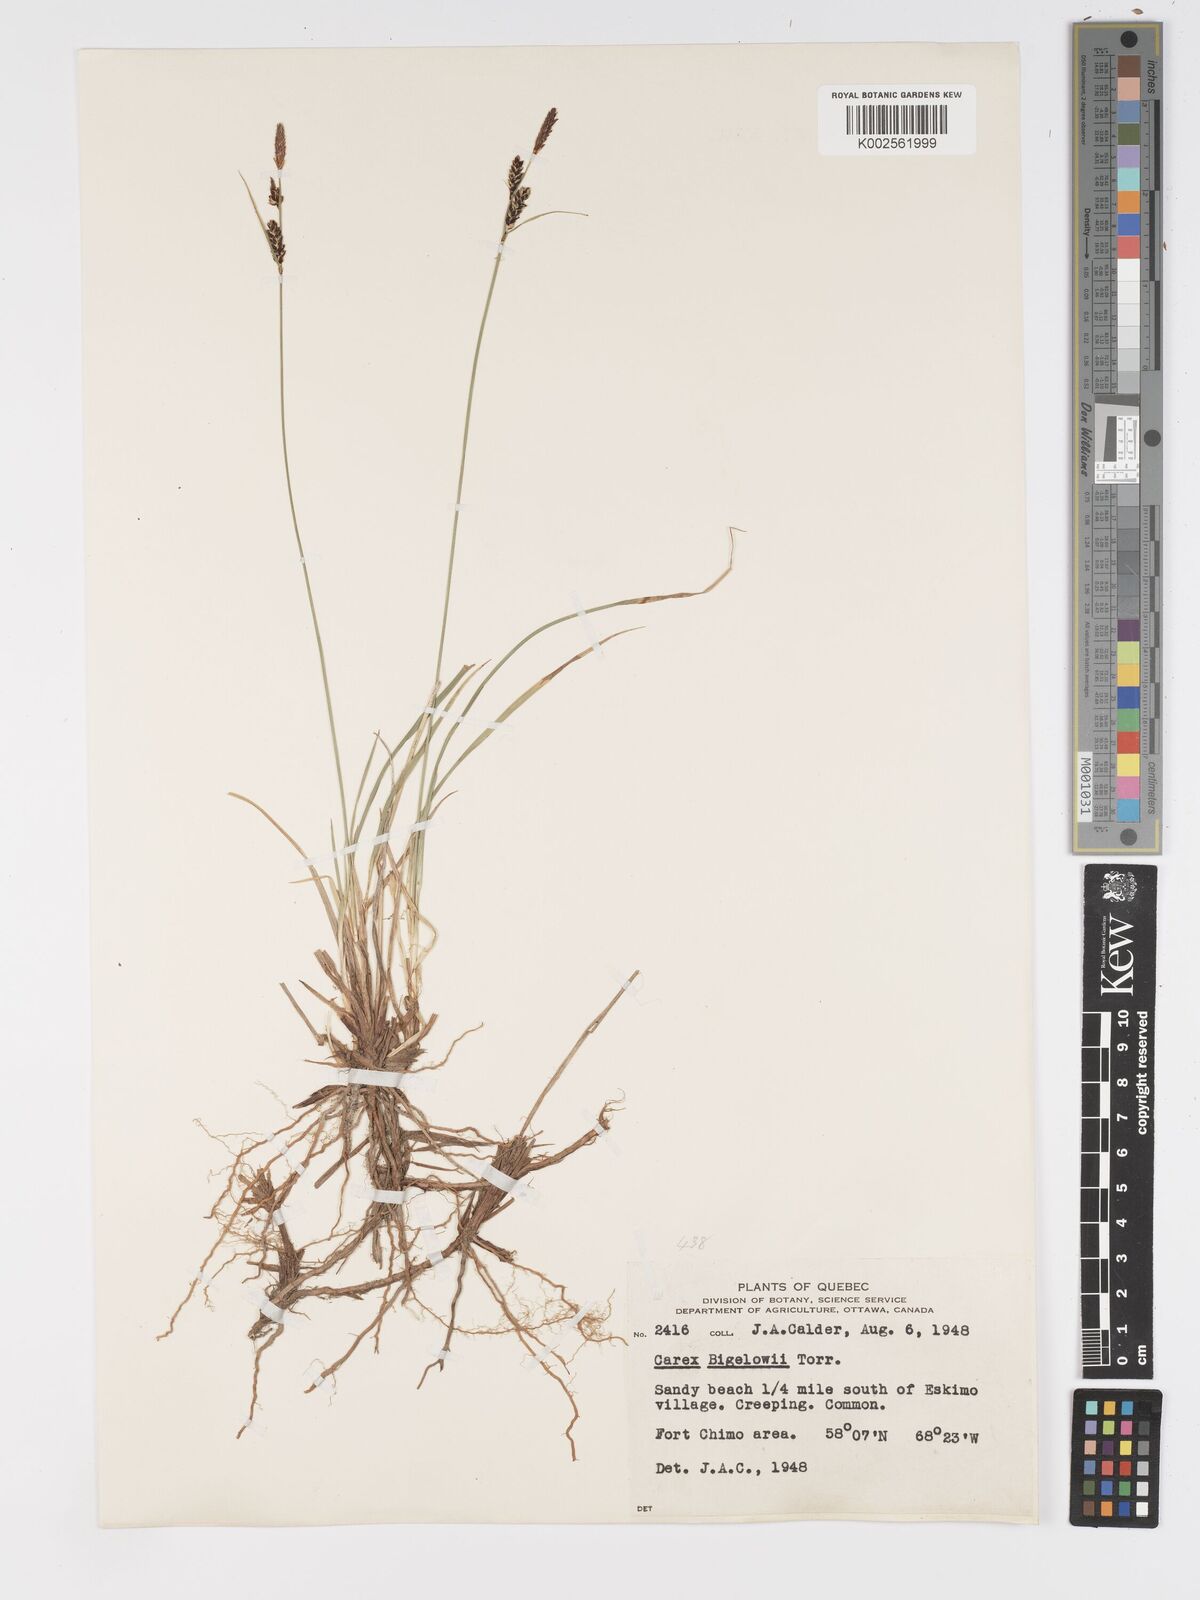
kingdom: Plantae
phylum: Tracheophyta
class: Liliopsida
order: Poales
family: Cyperaceae
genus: Carex
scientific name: Carex bigelowii
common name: Stiff sedge
